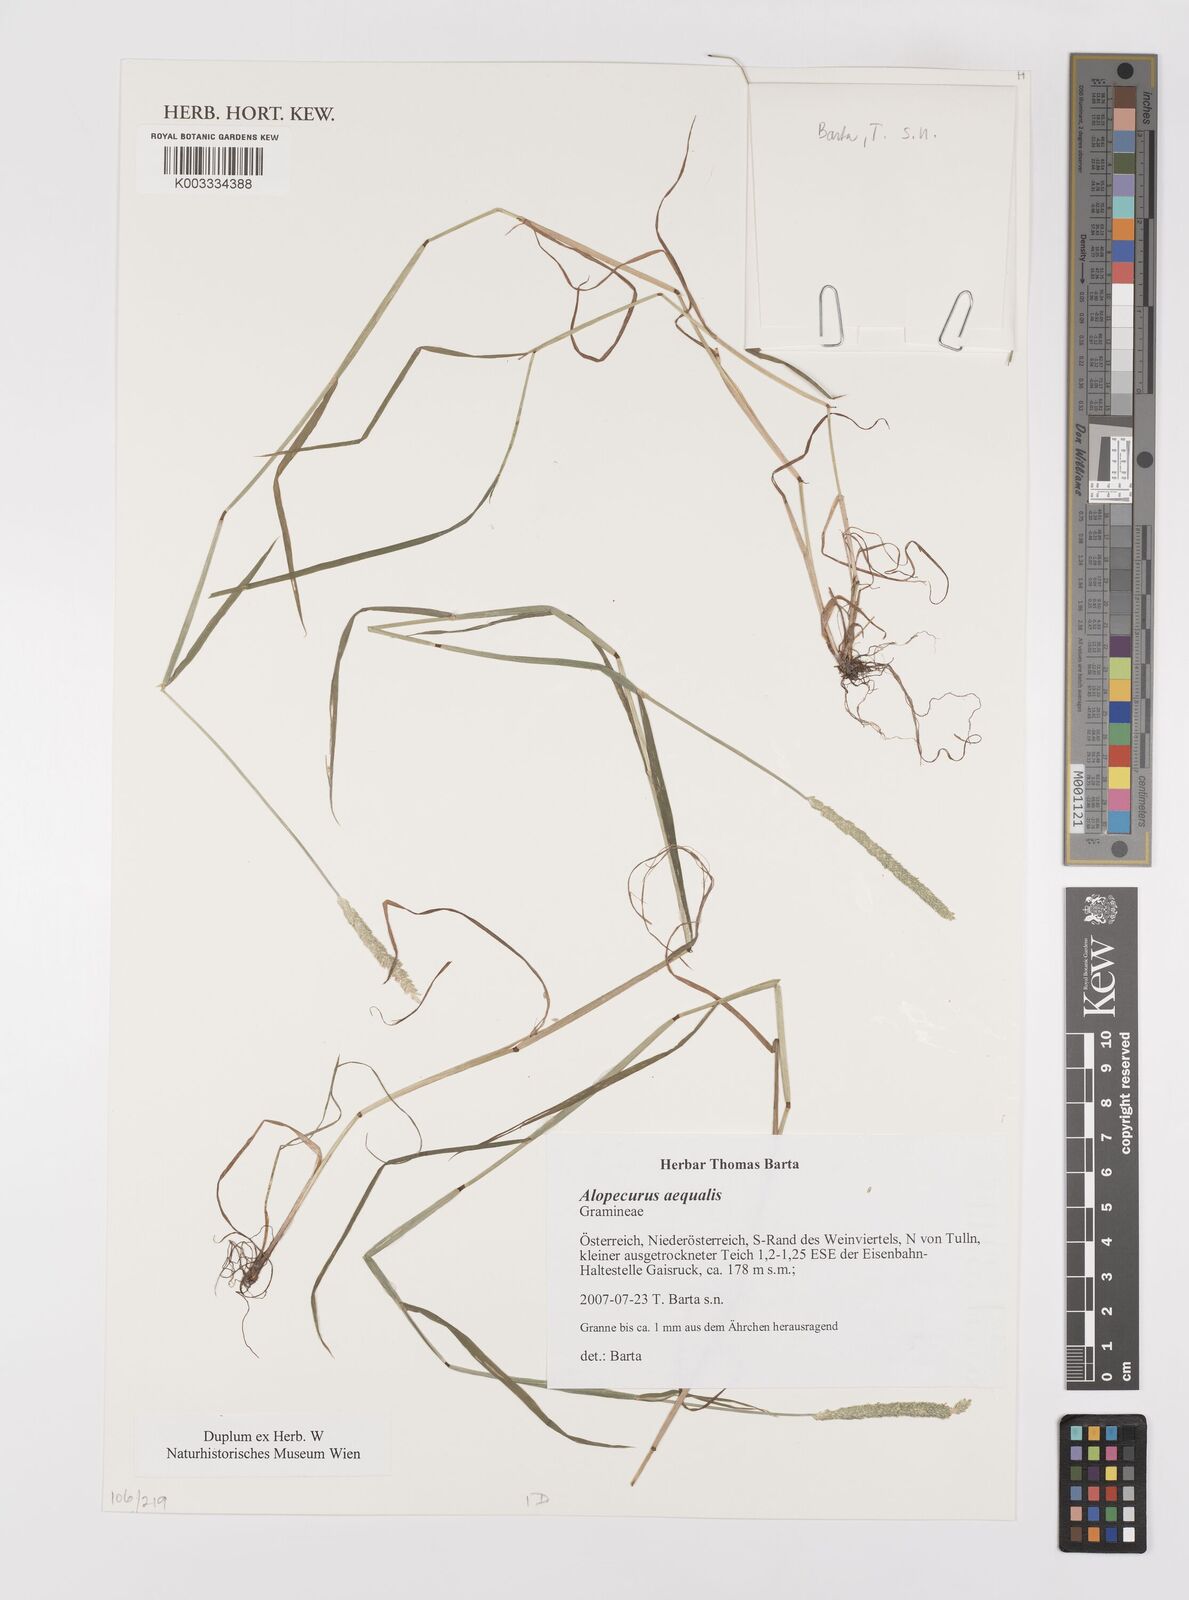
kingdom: Plantae
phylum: Tracheophyta
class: Liliopsida
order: Poales
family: Poaceae
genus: Alopecurus
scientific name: Alopecurus aequalis
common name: Orange foxtail
